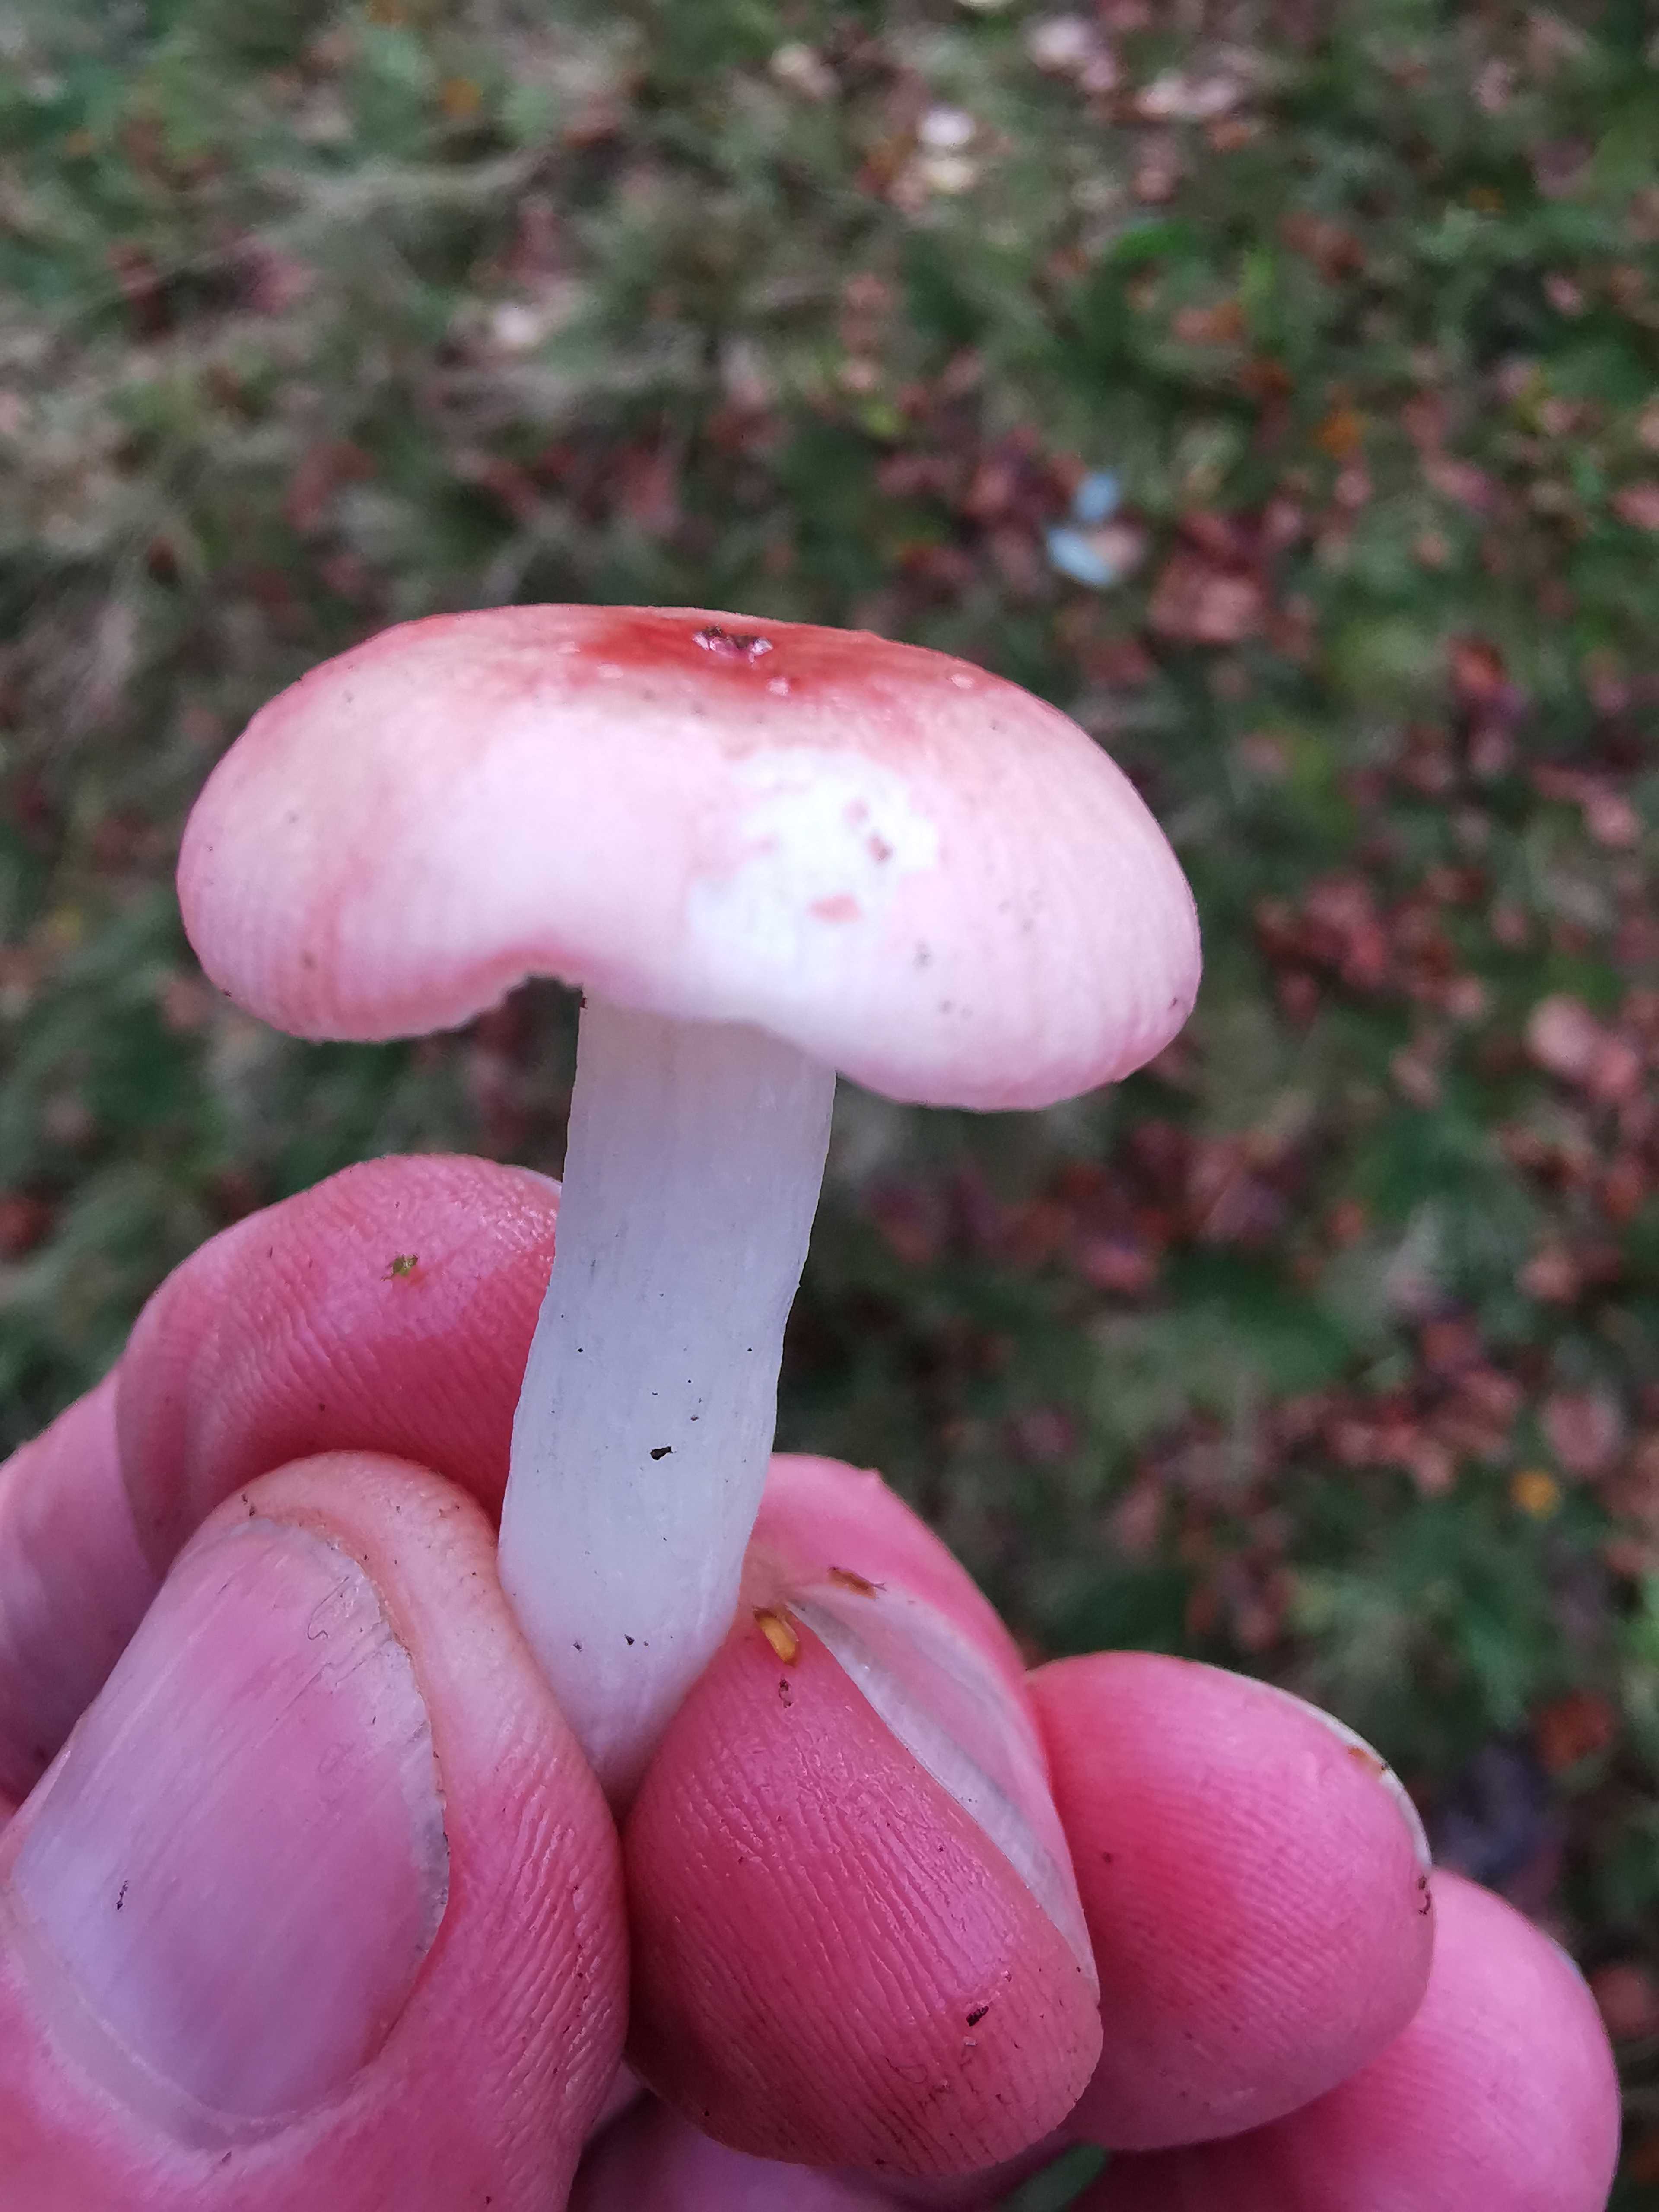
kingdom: Fungi
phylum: Basidiomycota
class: Agaricomycetes
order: Russulales
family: Russulaceae
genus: Russula
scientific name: Russula betularum
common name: bleg gift-skørhat
